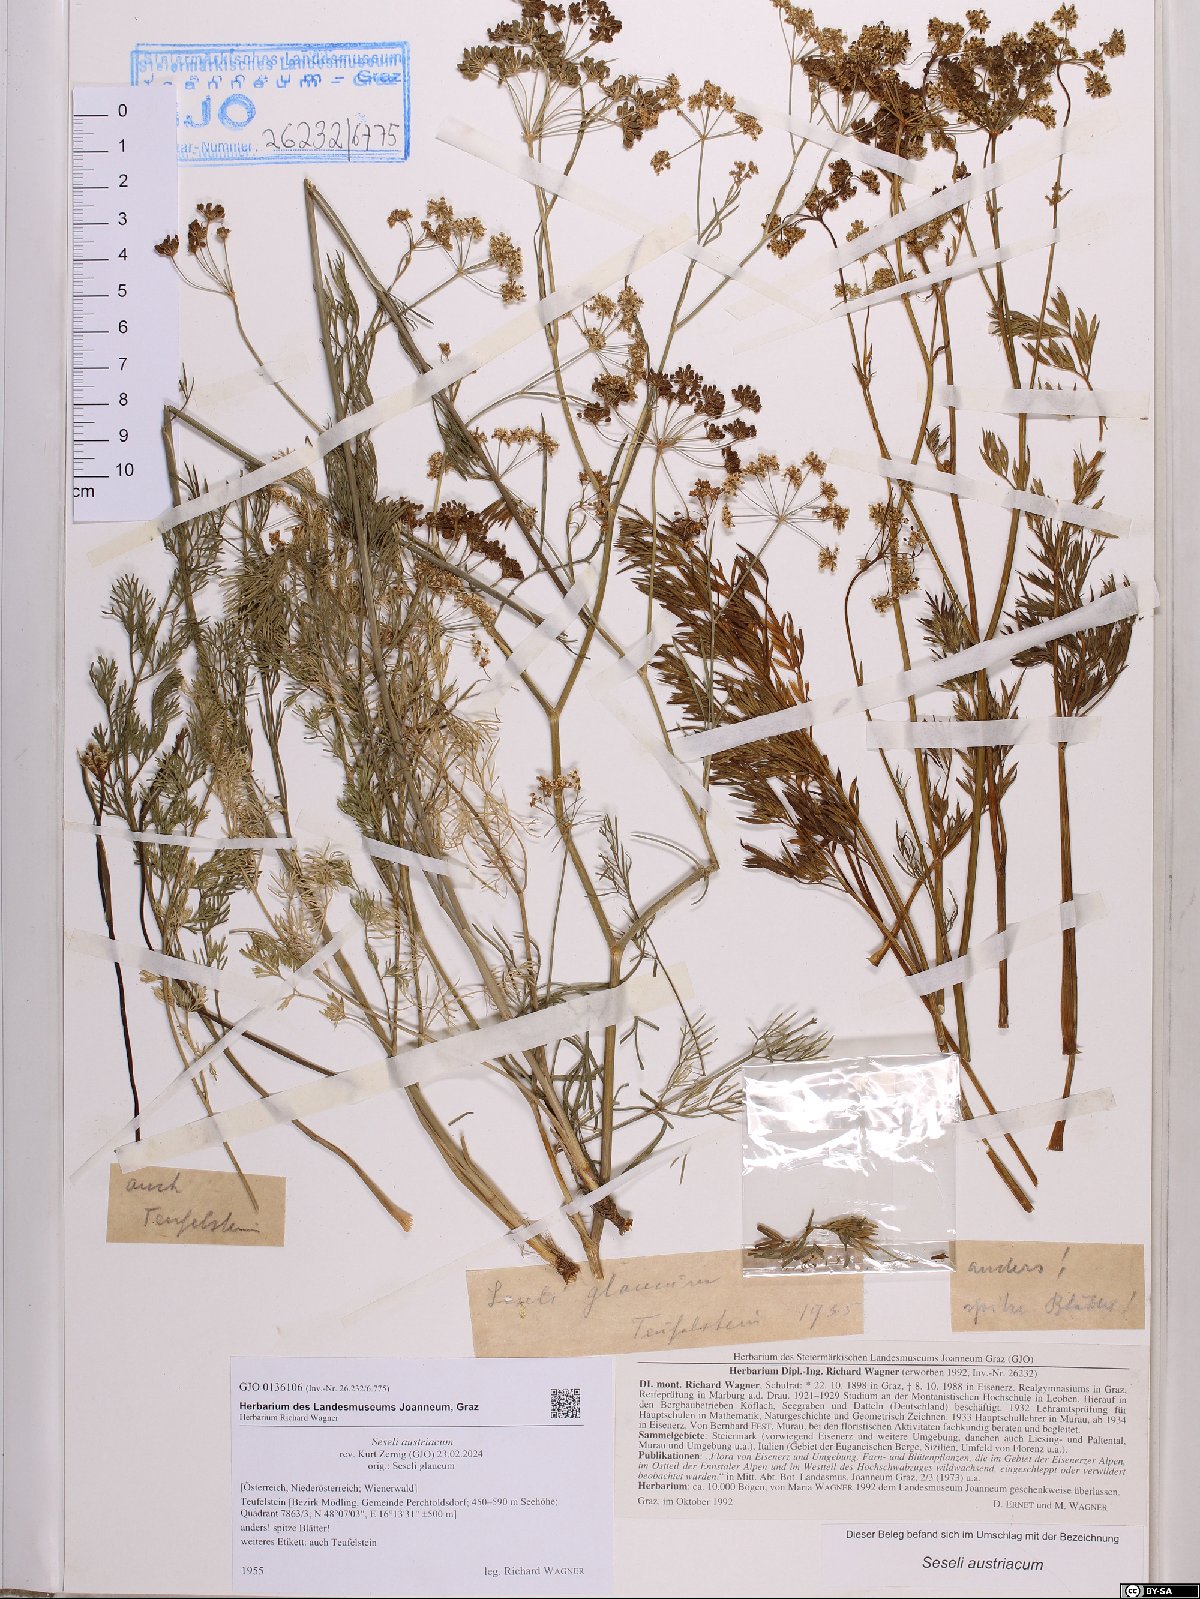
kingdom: Plantae
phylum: Tracheophyta
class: Magnoliopsida
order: Apiales
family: Apiaceae
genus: Seseli
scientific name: Seseli austriacum
